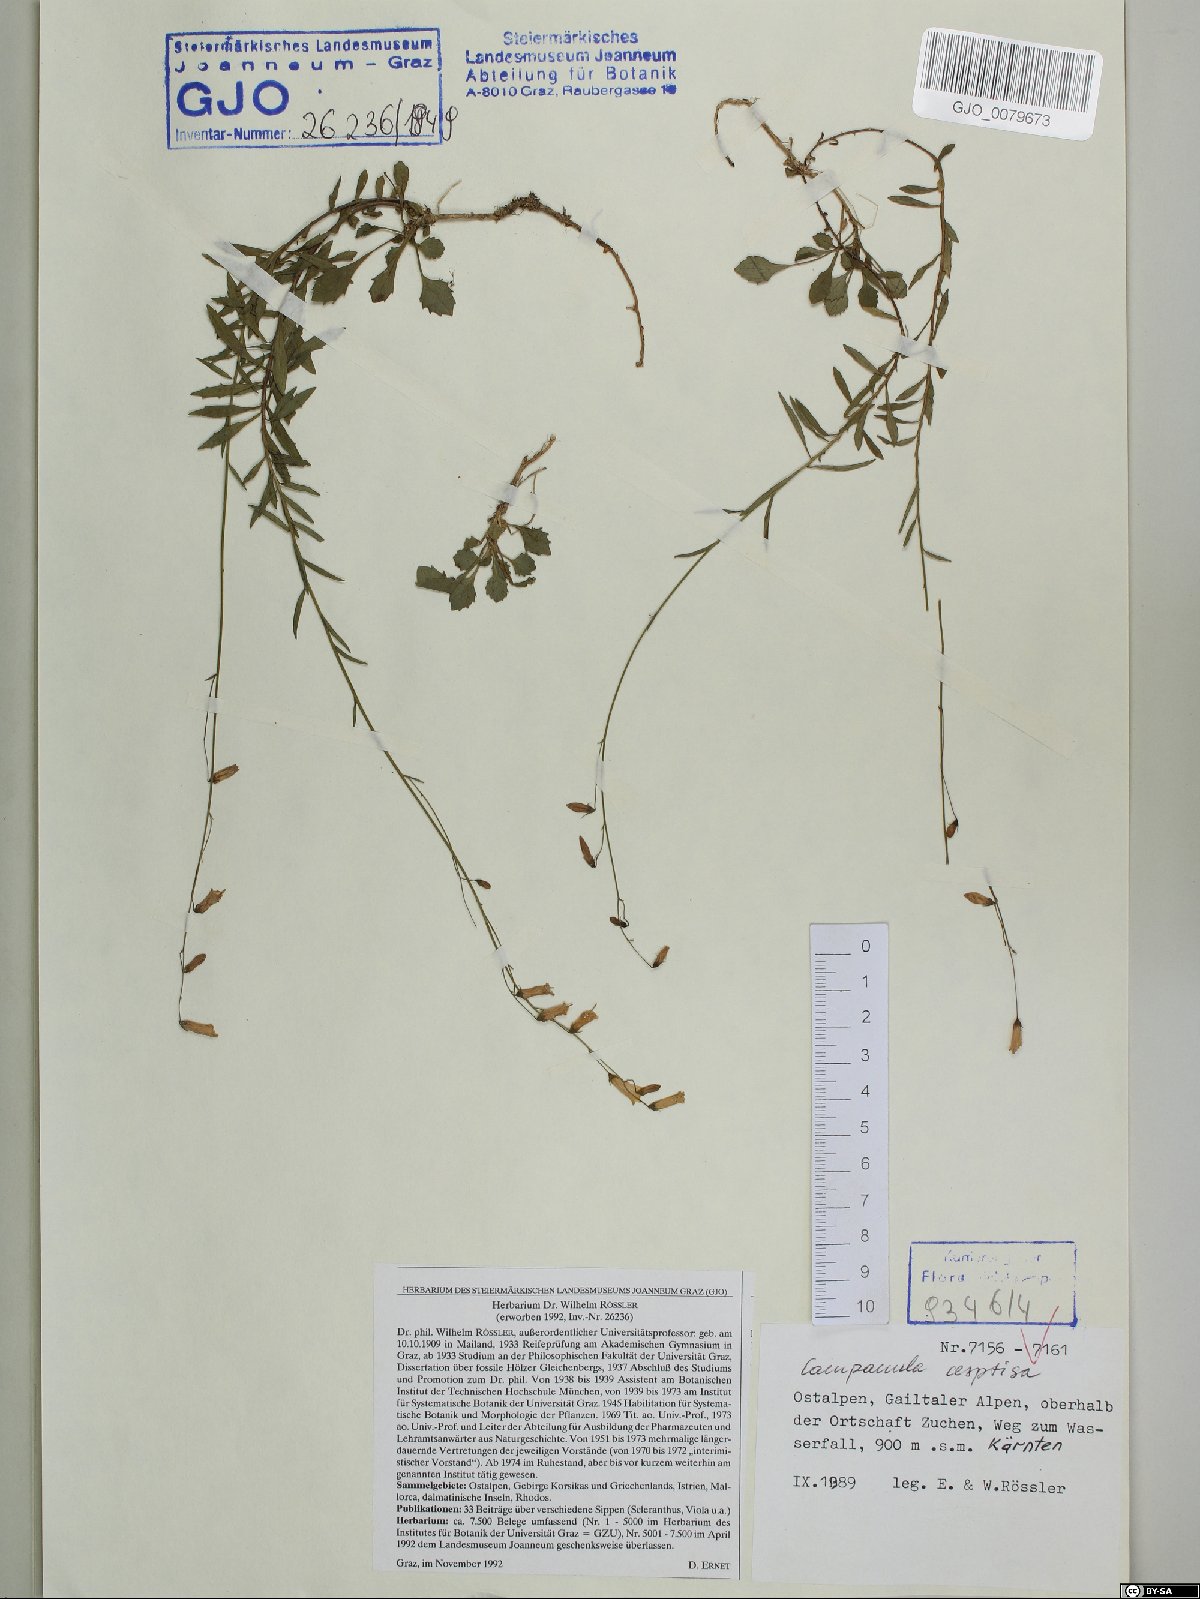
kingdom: Plantae
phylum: Tracheophyta
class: Magnoliopsida
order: Asterales
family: Campanulaceae
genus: Campanula
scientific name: Campanula cespitosa
